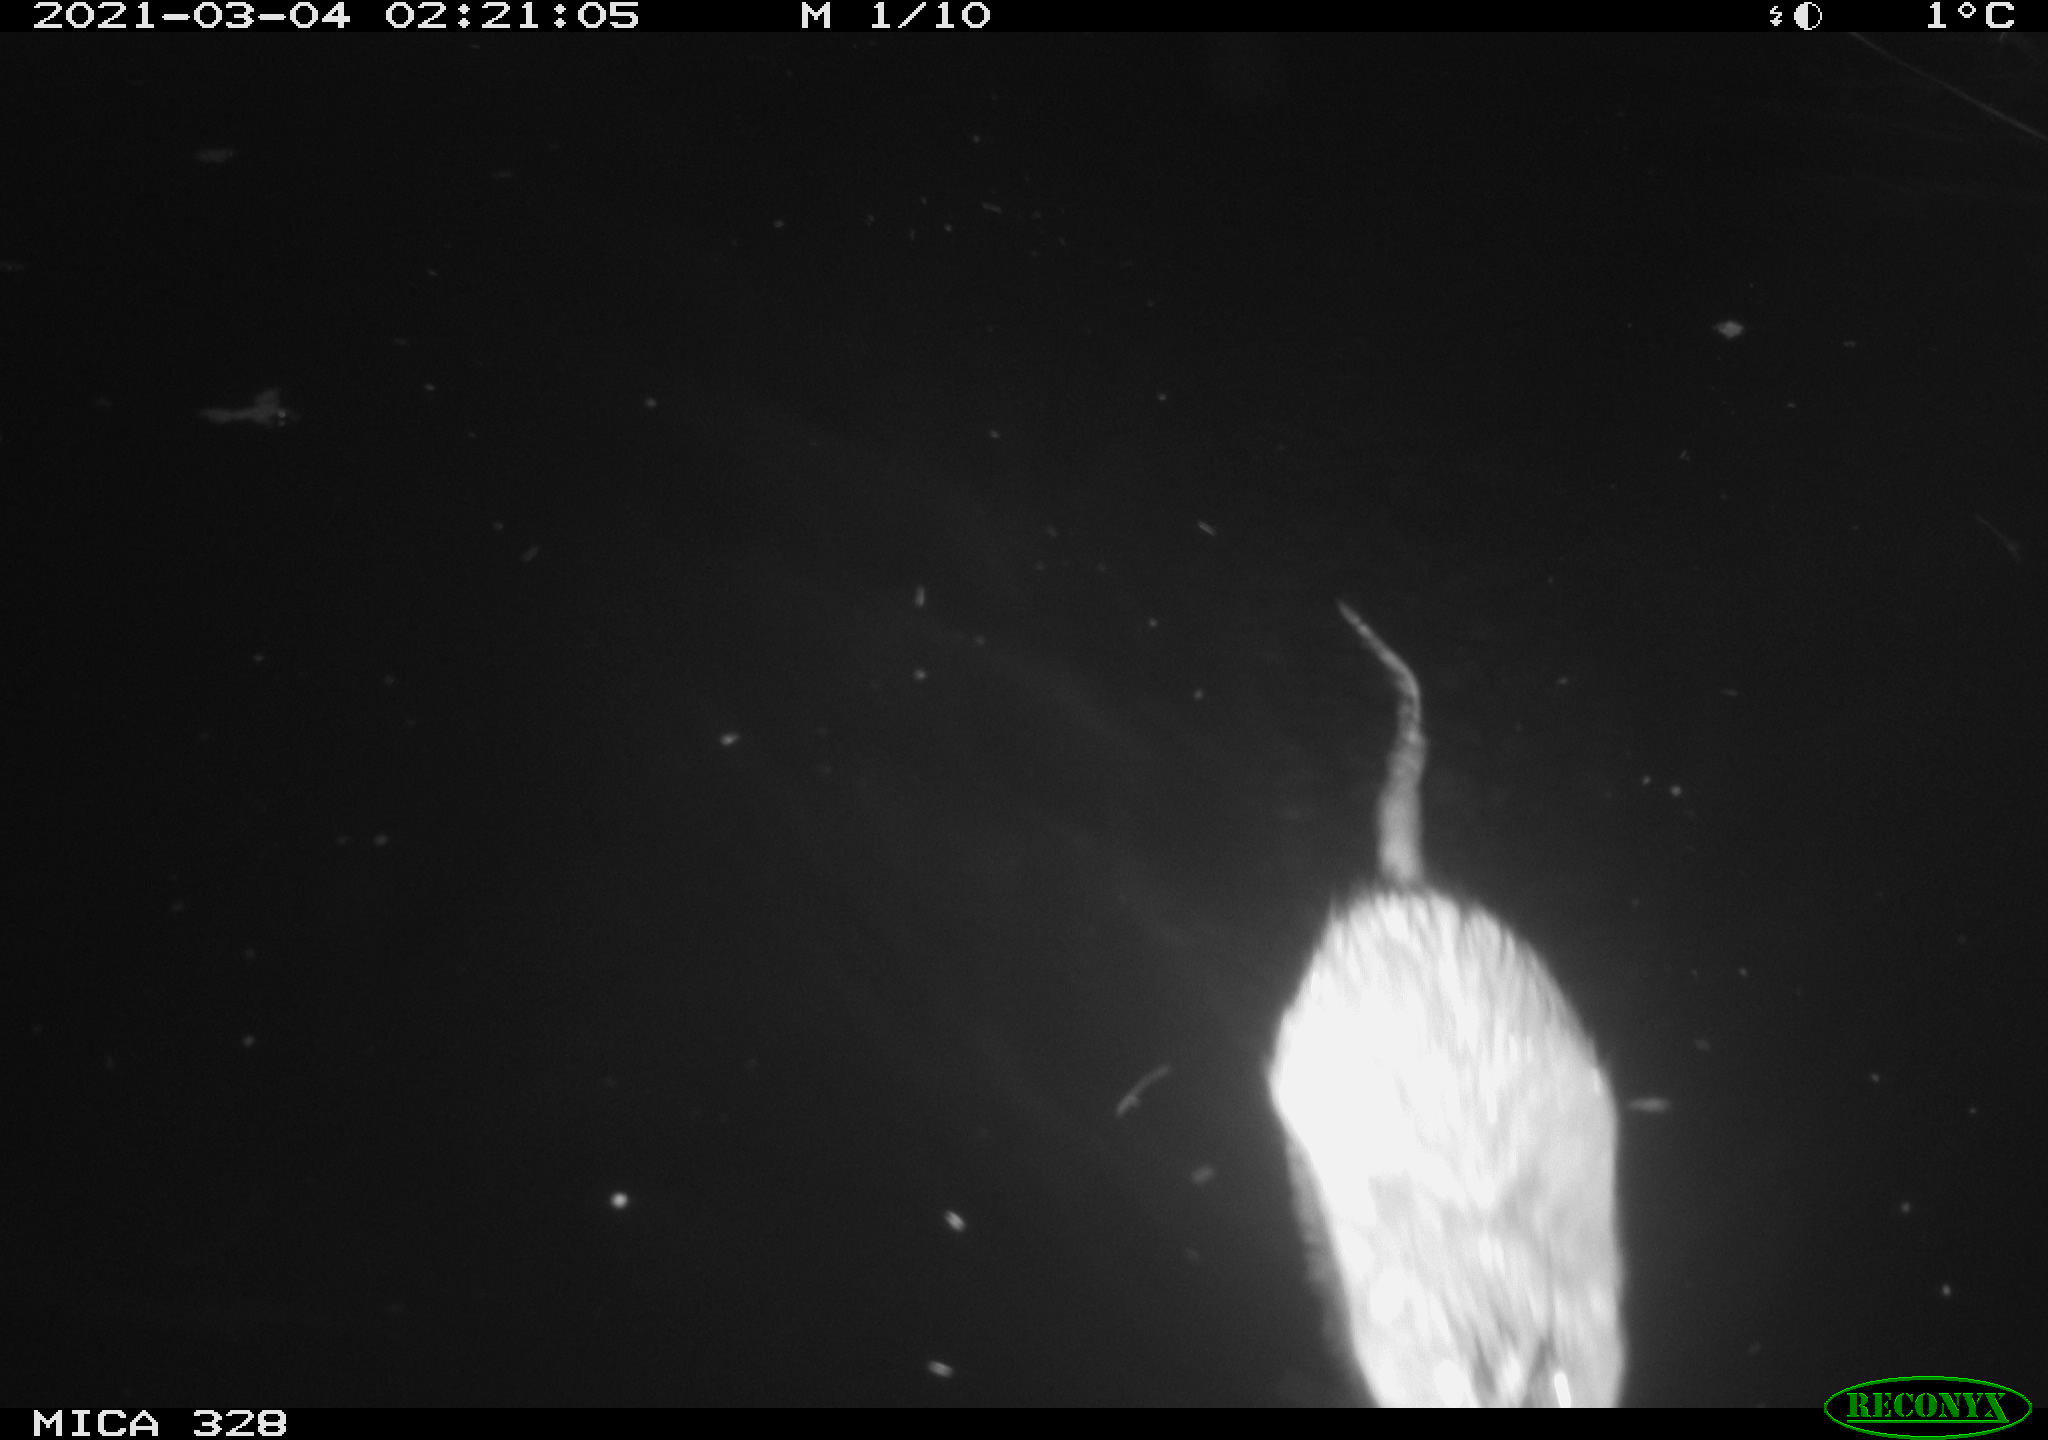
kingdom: Animalia
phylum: Chordata
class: Mammalia
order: Rodentia
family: Cricetidae
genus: Ondatra
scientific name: Ondatra zibethicus
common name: Muskrat
